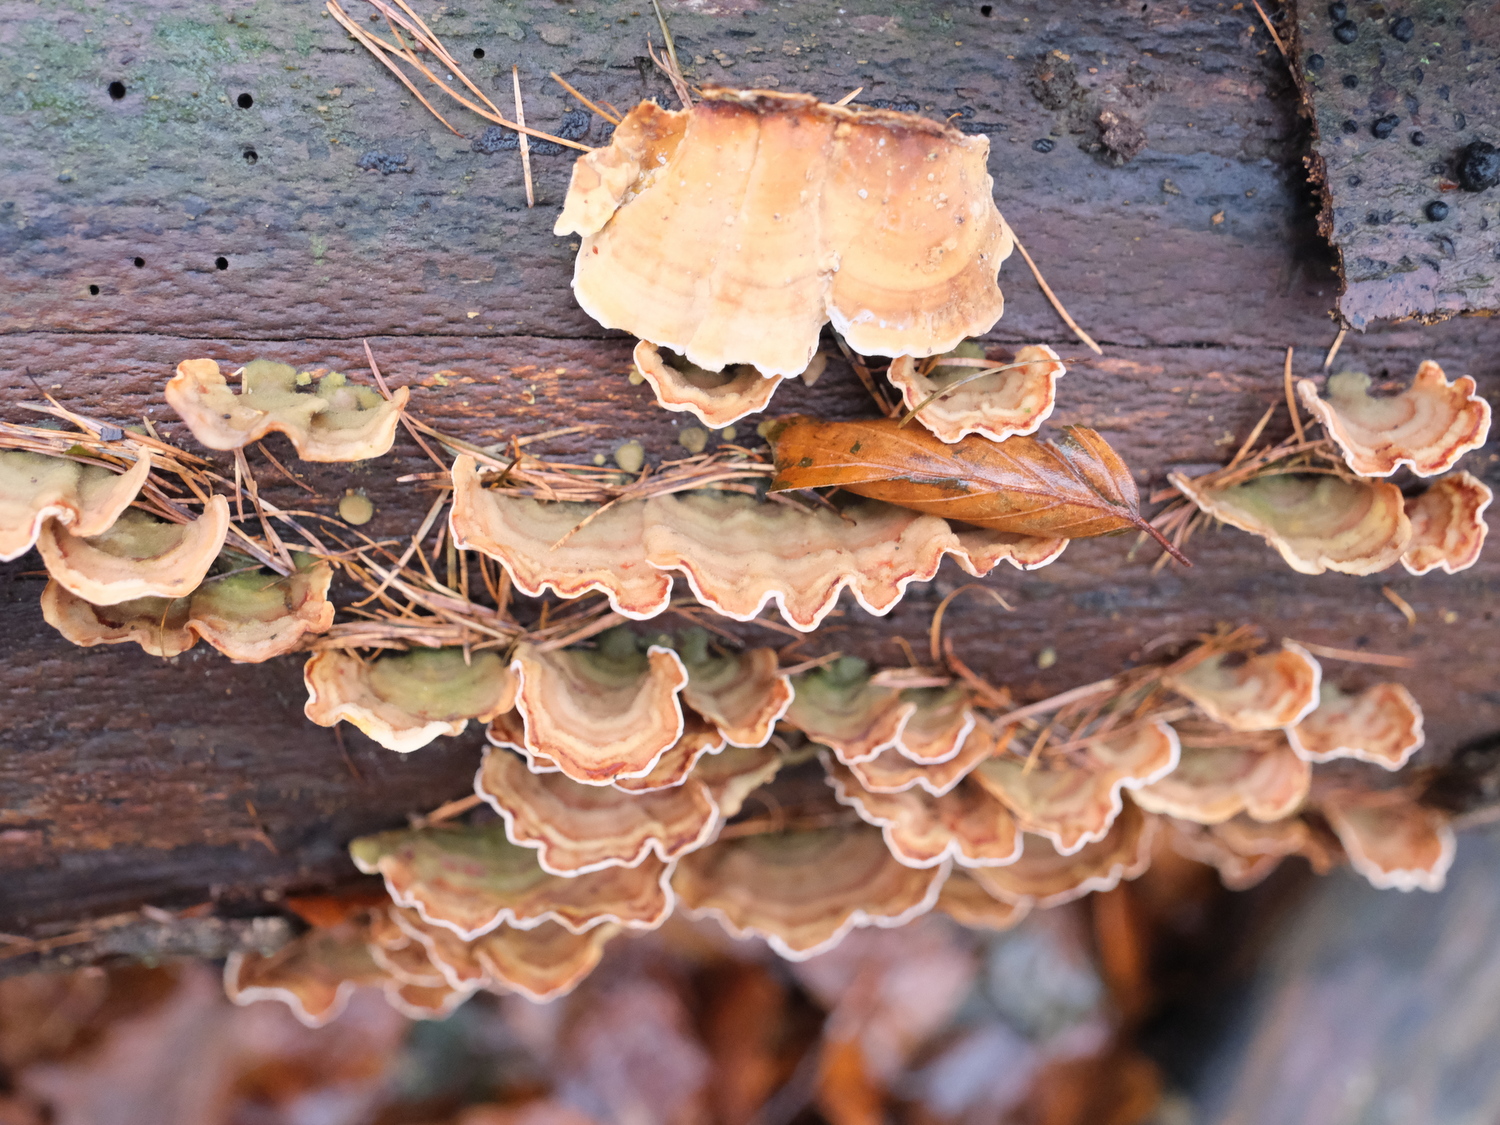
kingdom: Fungi
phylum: Basidiomycota
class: Agaricomycetes
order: Russulales
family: Stereaceae
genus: Stereum
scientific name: Stereum subtomentosum
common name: smuk lædersvamp
